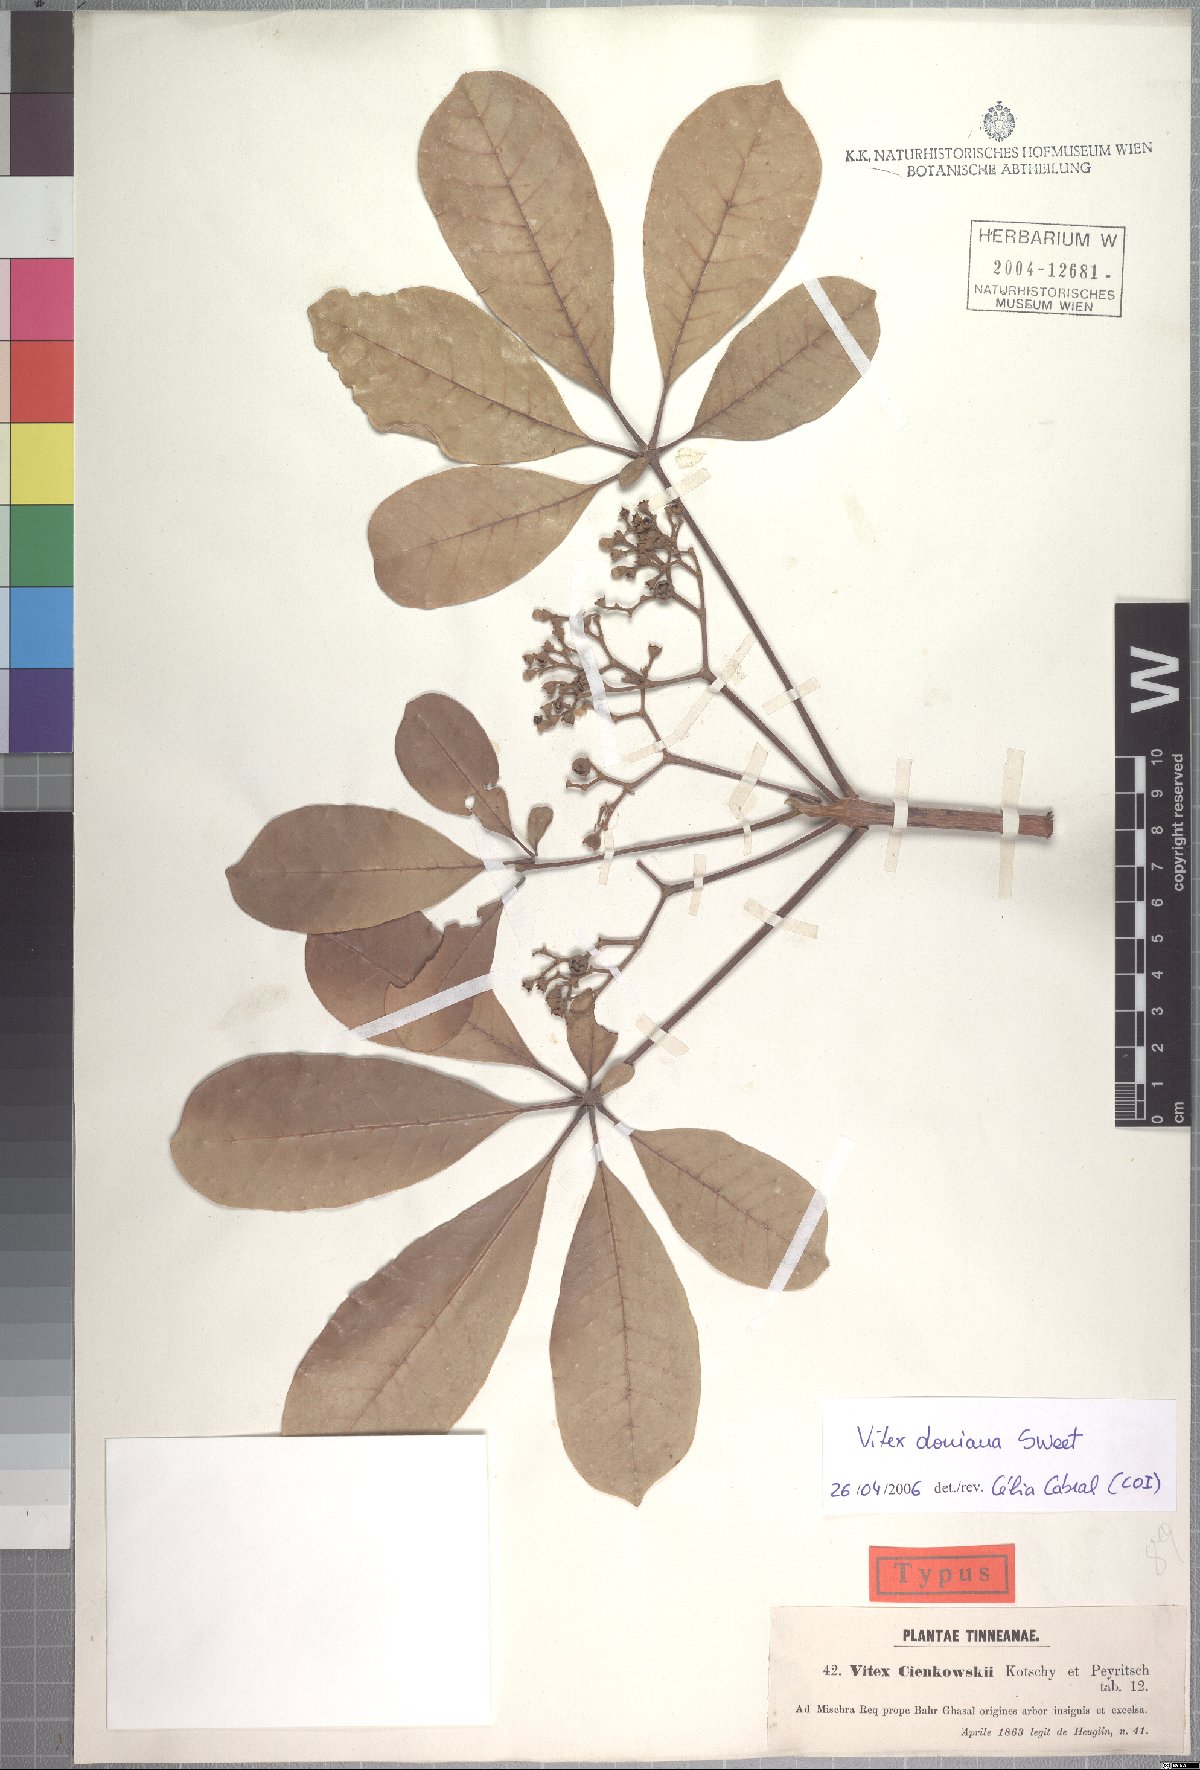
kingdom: Plantae
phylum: Tracheophyta
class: Magnoliopsida
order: Lamiales
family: Lamiaceae
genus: Vitex
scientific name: Vitex doniana
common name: Black plum
